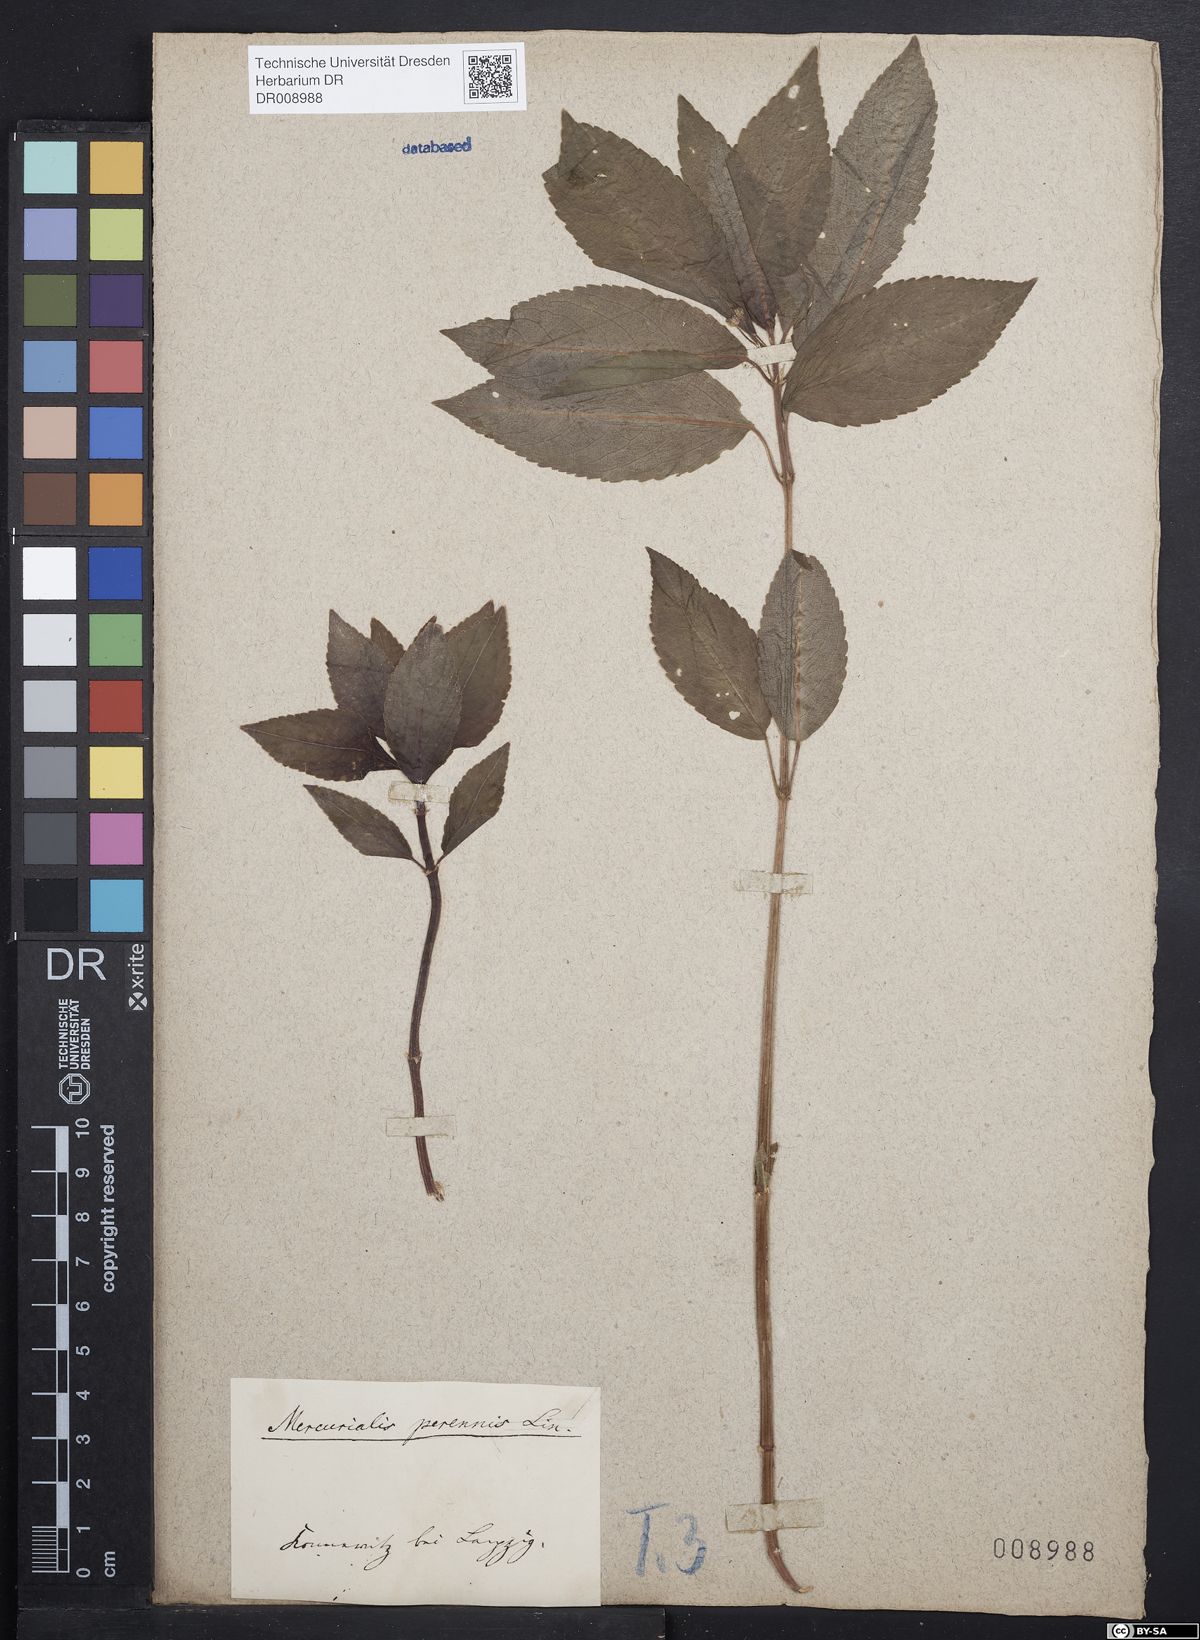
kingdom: Plantae
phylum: Tracheophyta
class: Magnoliopsida
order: Malpighiales
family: Euphorbiaceae
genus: Mercurialis
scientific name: Mercurialis perennis
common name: Dog mercury
